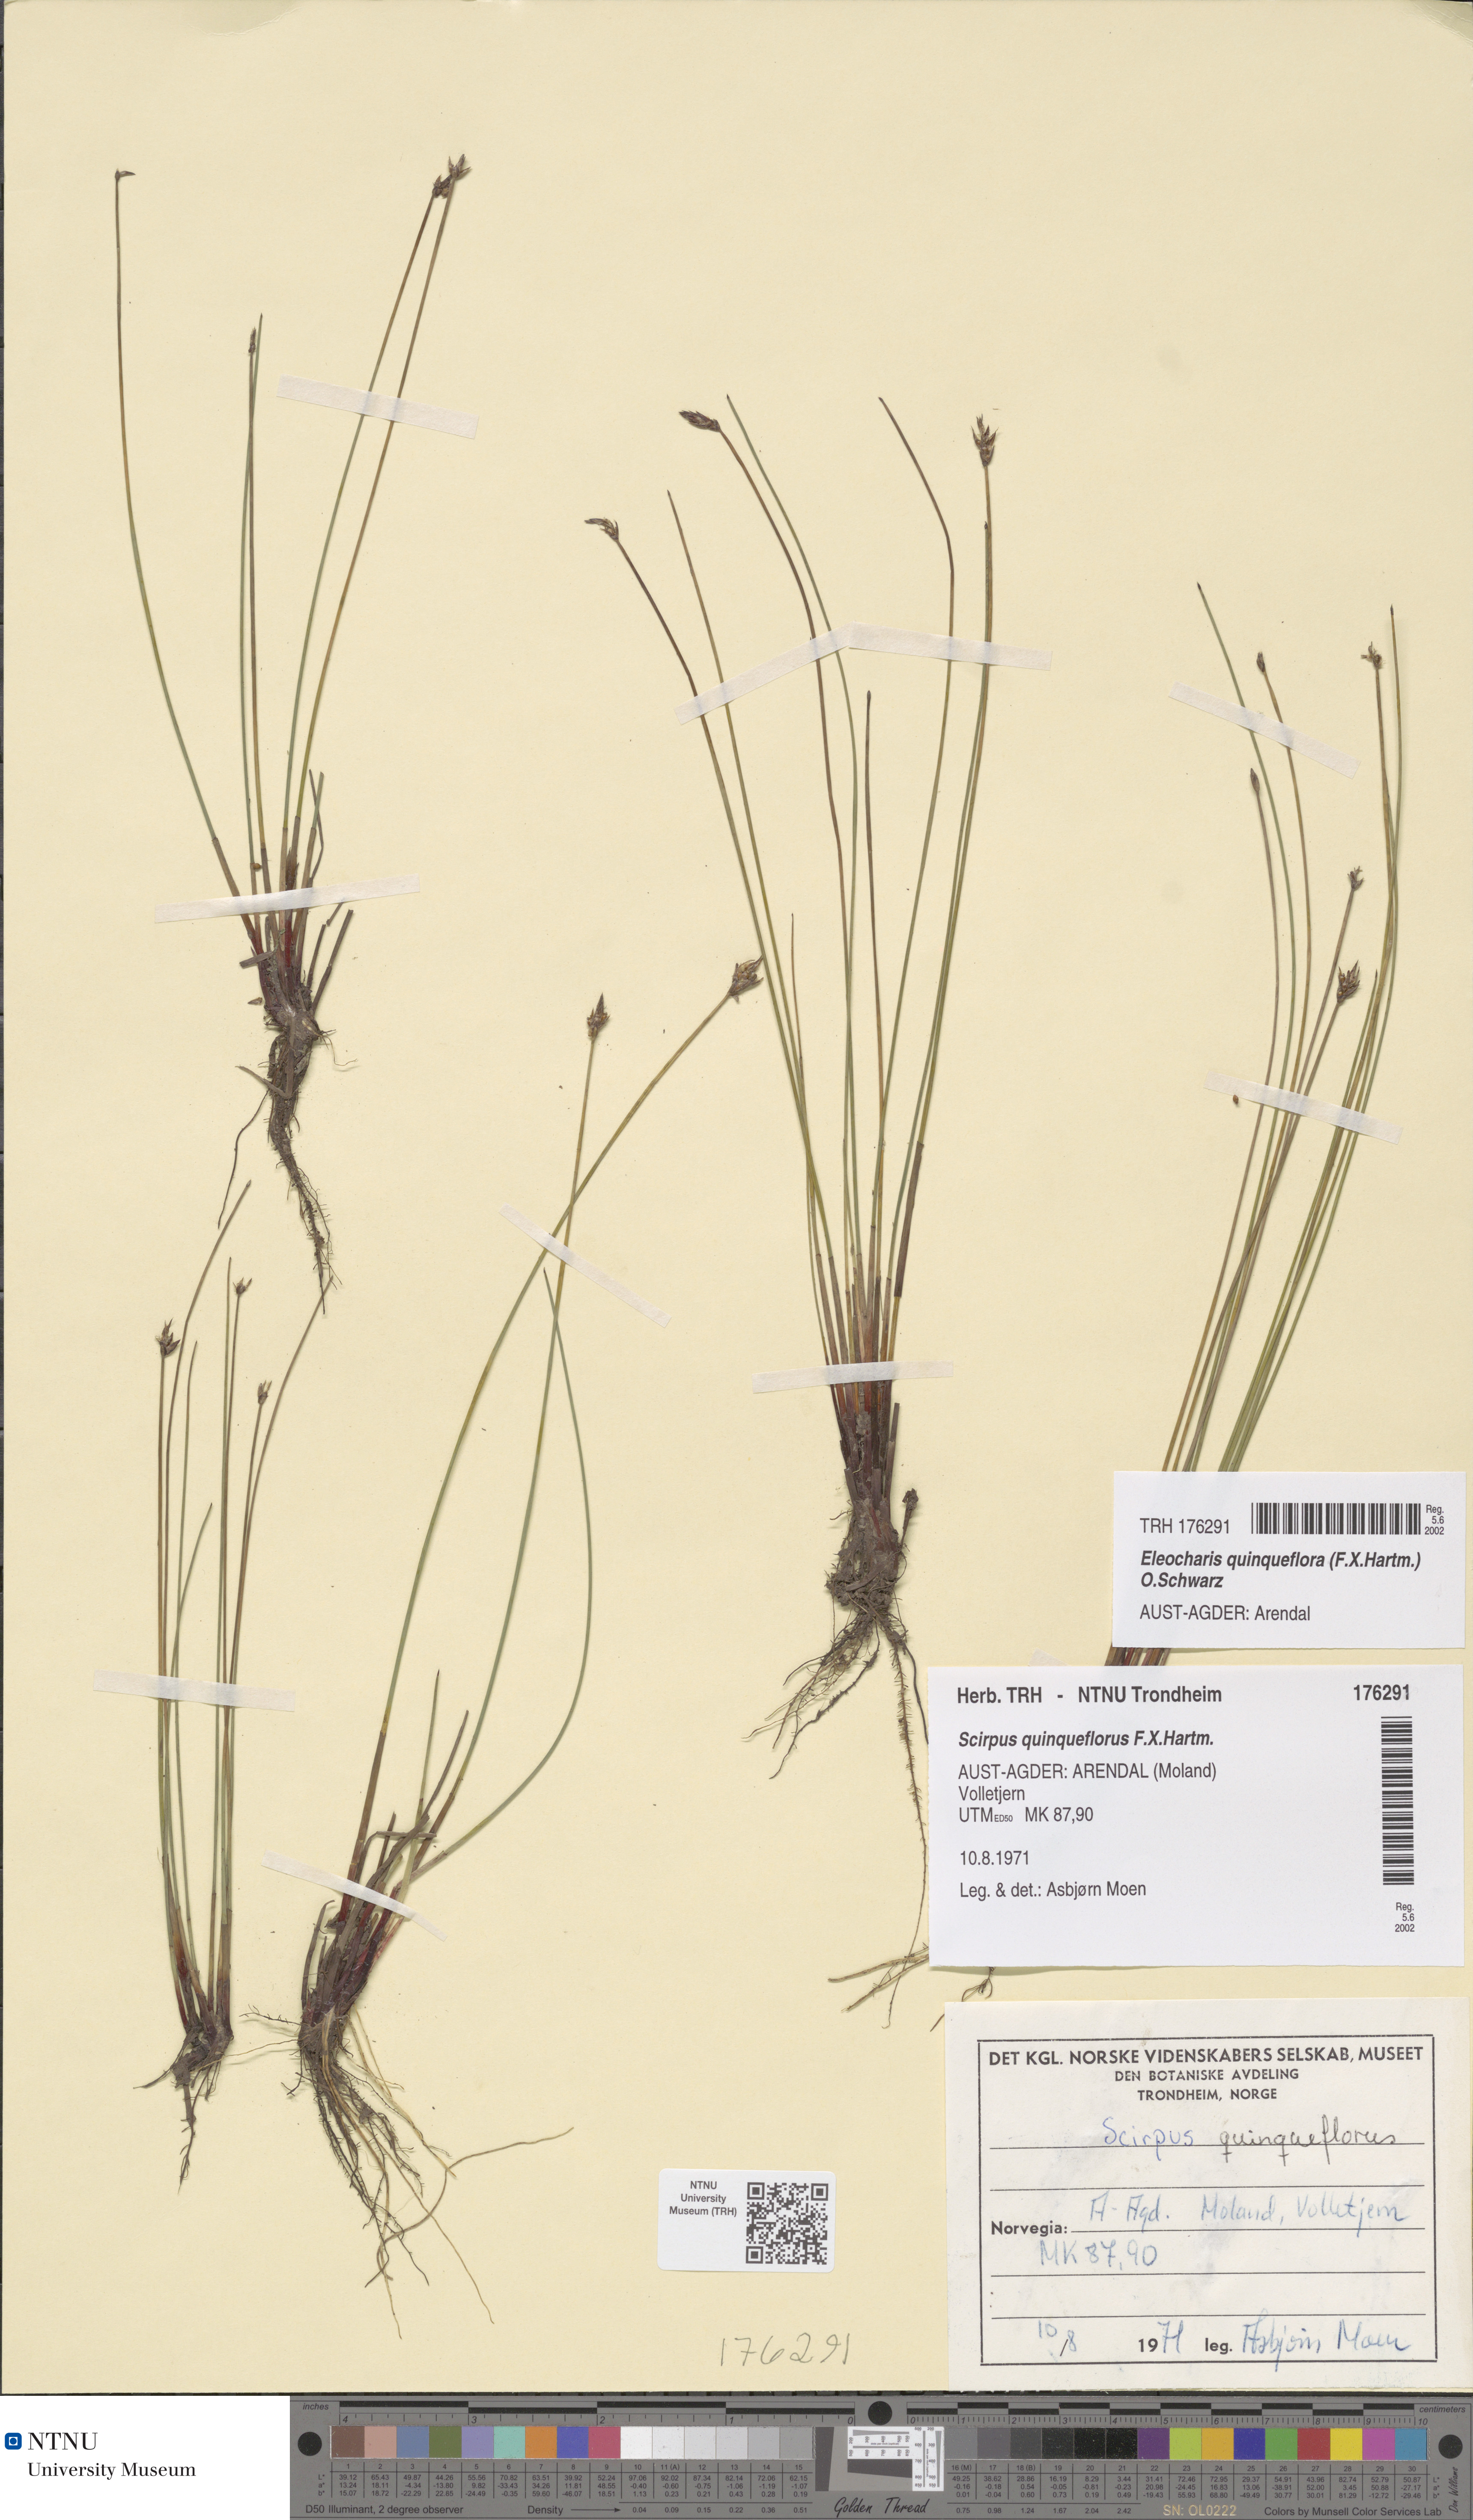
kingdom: Plantae
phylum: Tracheophyta
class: Liliopsida
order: Poales
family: Cyperaceae
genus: Eleocharis
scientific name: Eleocharis quinqueflora
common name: Few-flowered spike-rush
